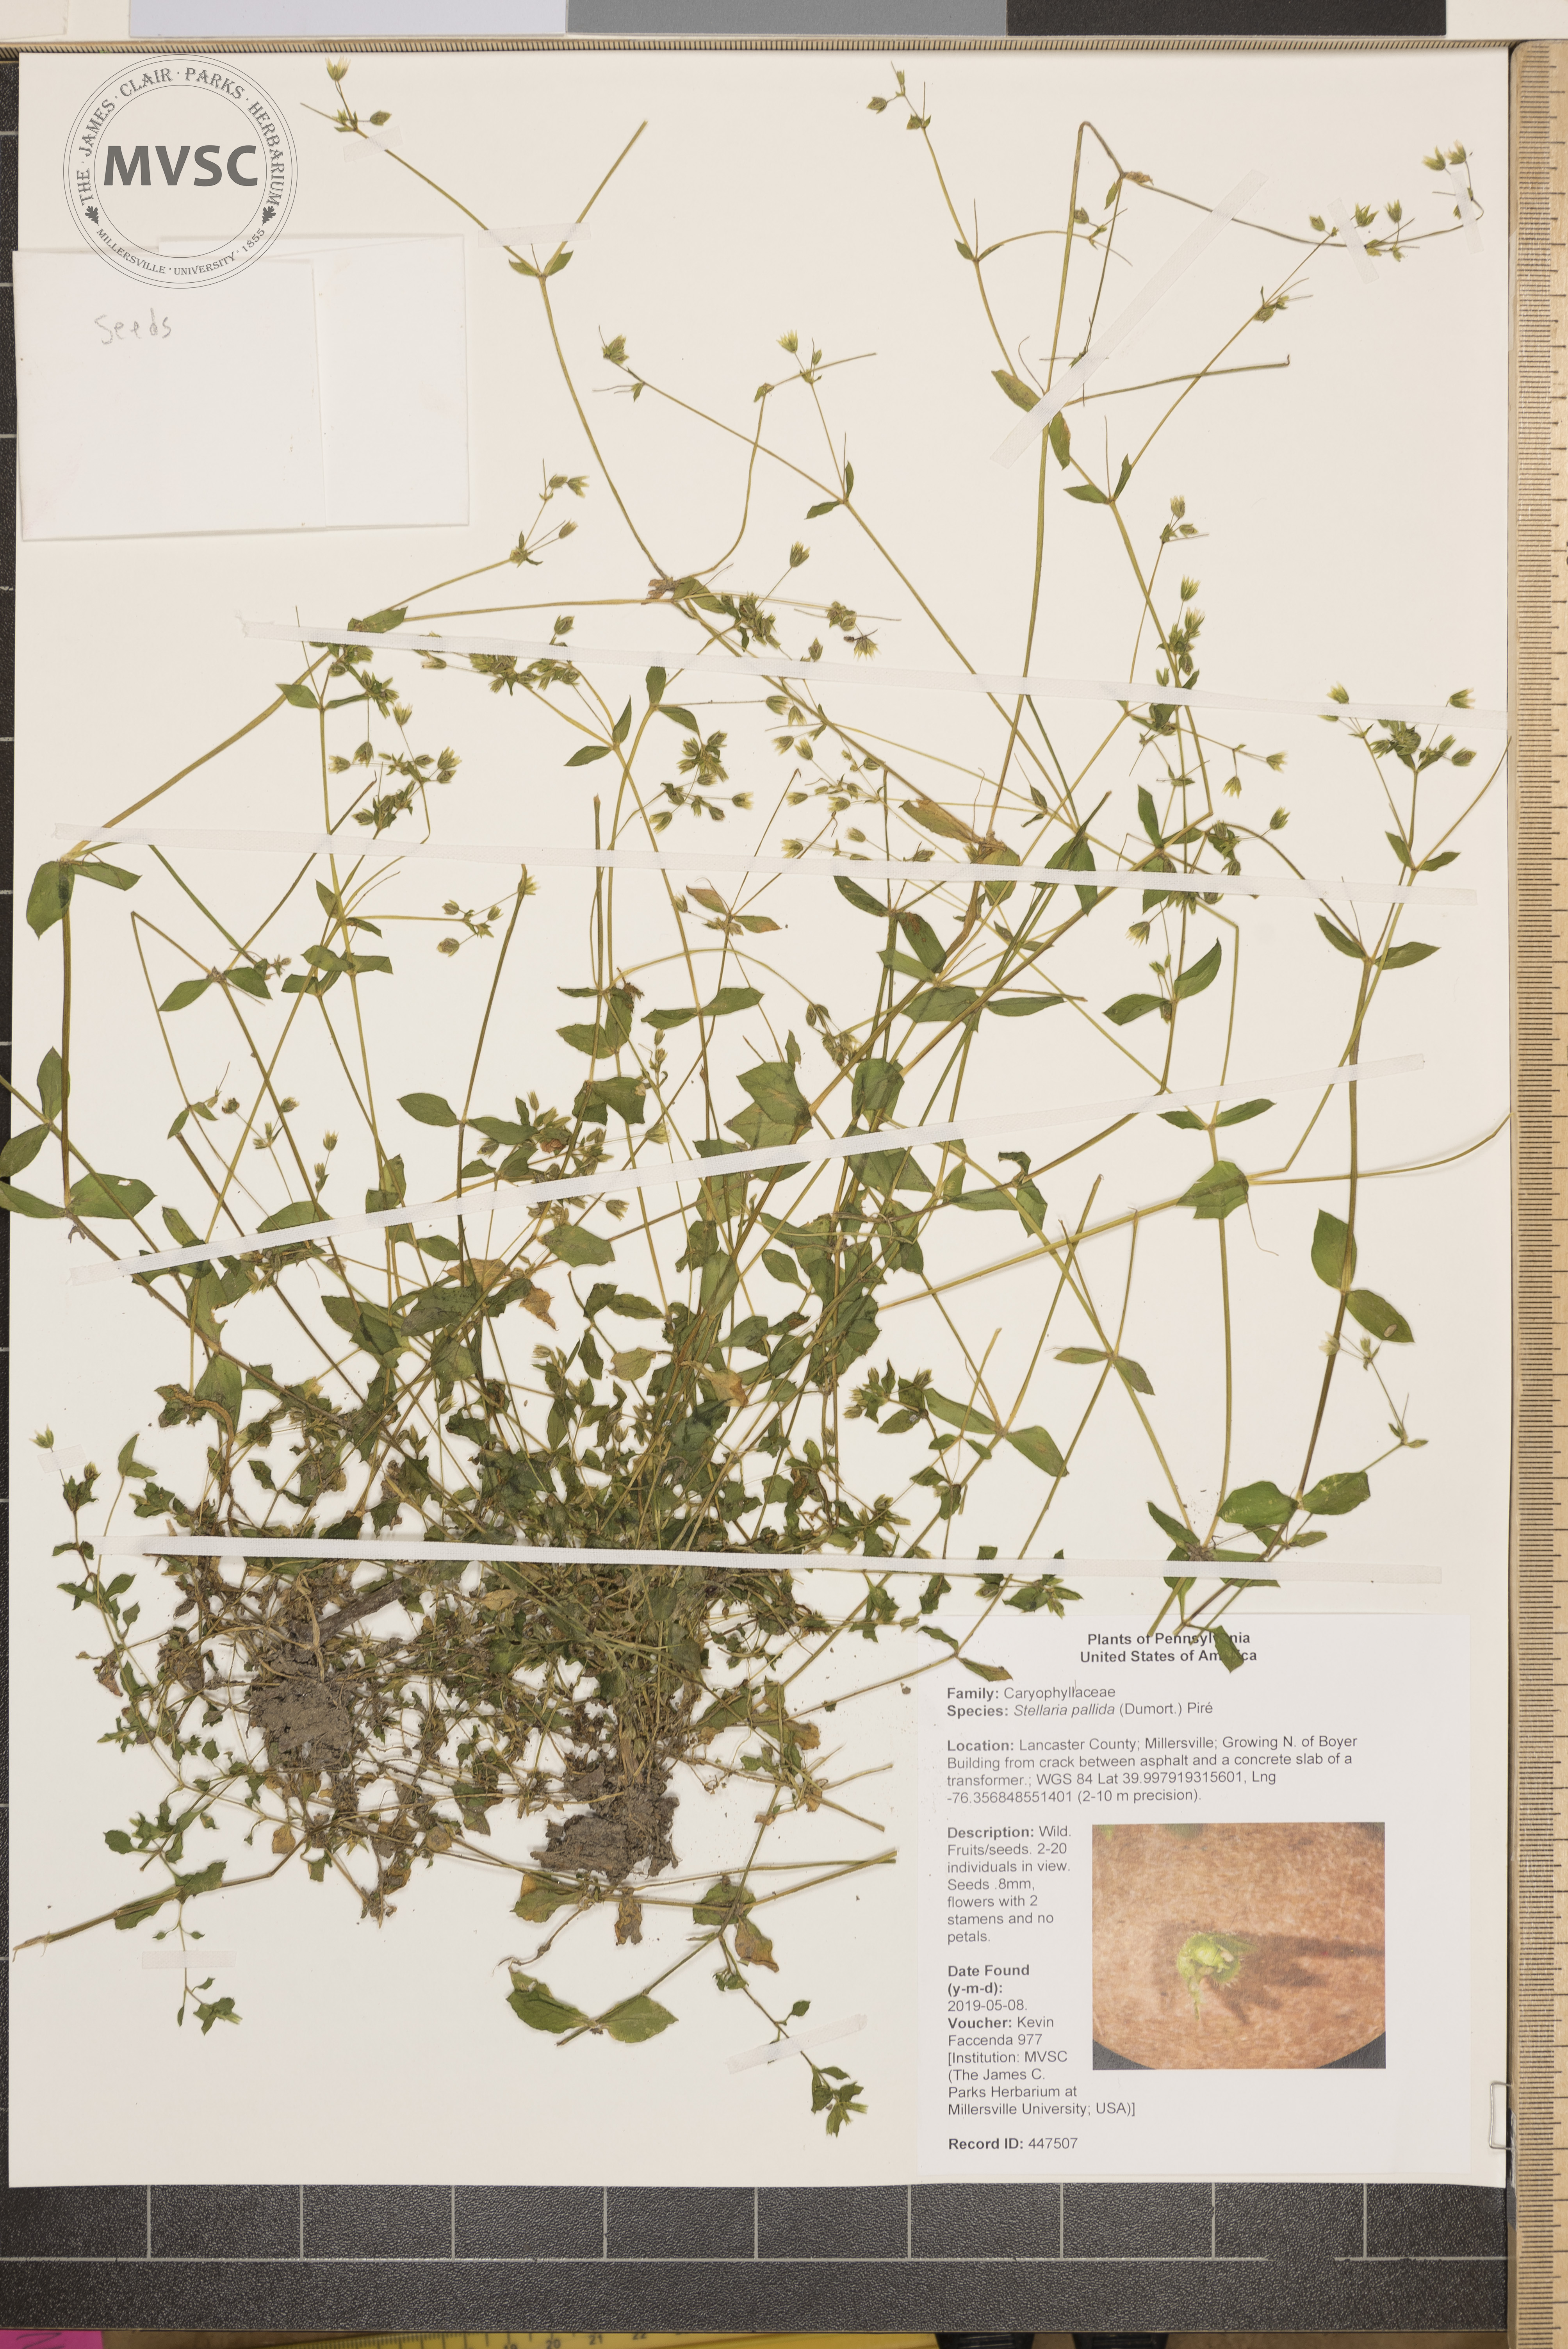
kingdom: Plantae
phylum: Tracheophyta
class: Magnoliopsida
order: Caryophyllales
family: Caryophyllaceae
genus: Stellaria
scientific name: Stellaria apetala
